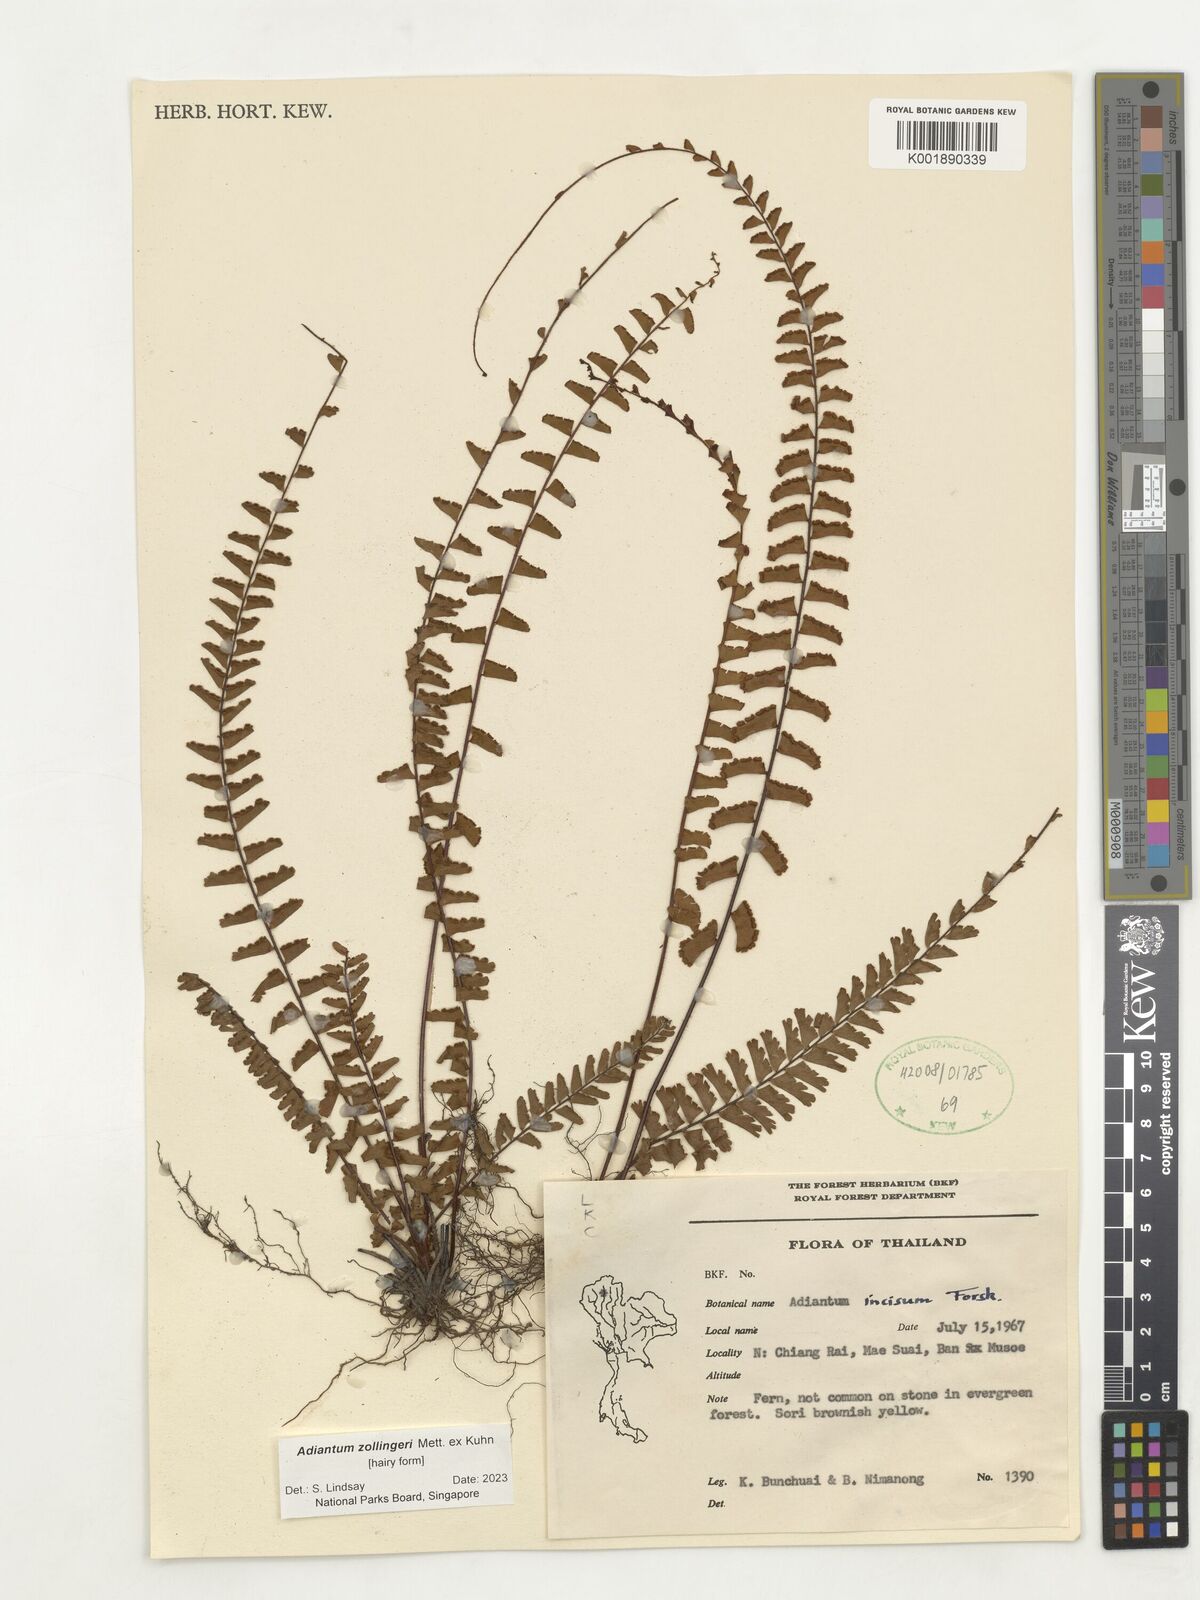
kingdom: Plantae
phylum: Tracheophyta
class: Polypodiopsida
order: Polypodiales
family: Pteridaceae
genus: Adiantum
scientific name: Adiantum zollingeri
